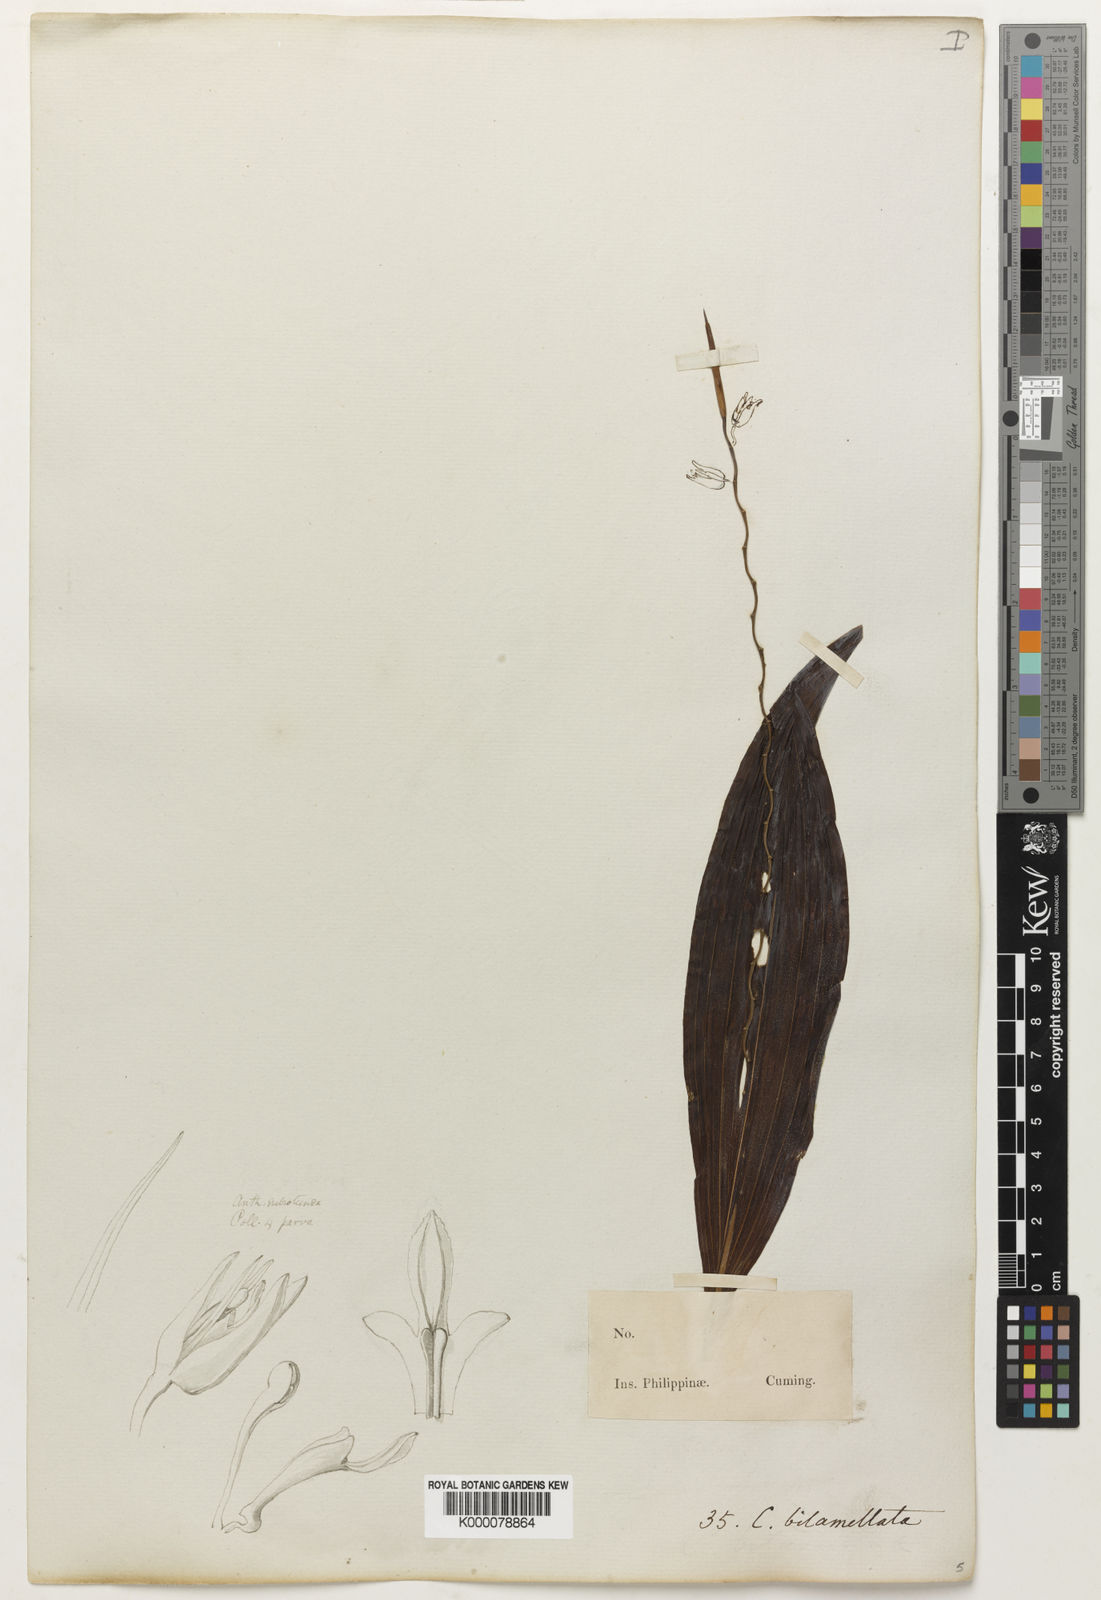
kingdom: Plantae
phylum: Tracheophyta
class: Liliopsida
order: Asparagales
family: Orchidaceae
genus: Coelogyne
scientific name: Coelogyne bilamellata
